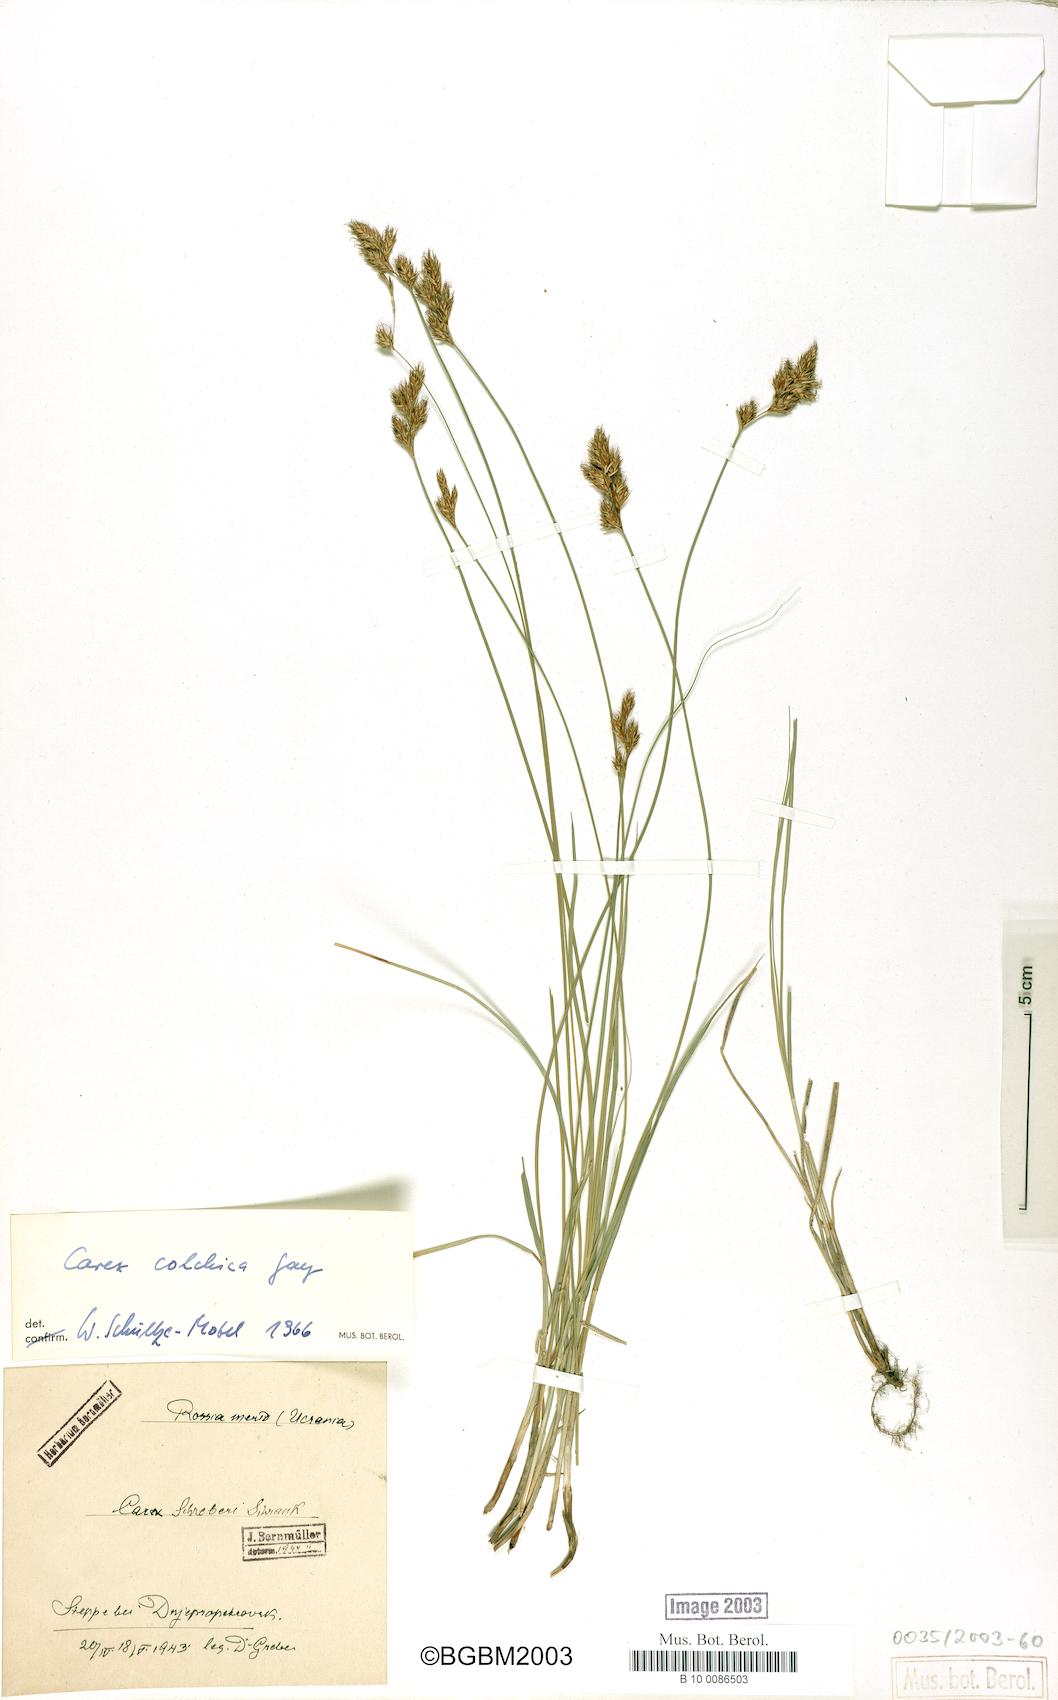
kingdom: Plantae
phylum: Tracheophyta
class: Liliopsida
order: Poales
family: Cyperaceae
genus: Carex
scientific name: Carex colchica
